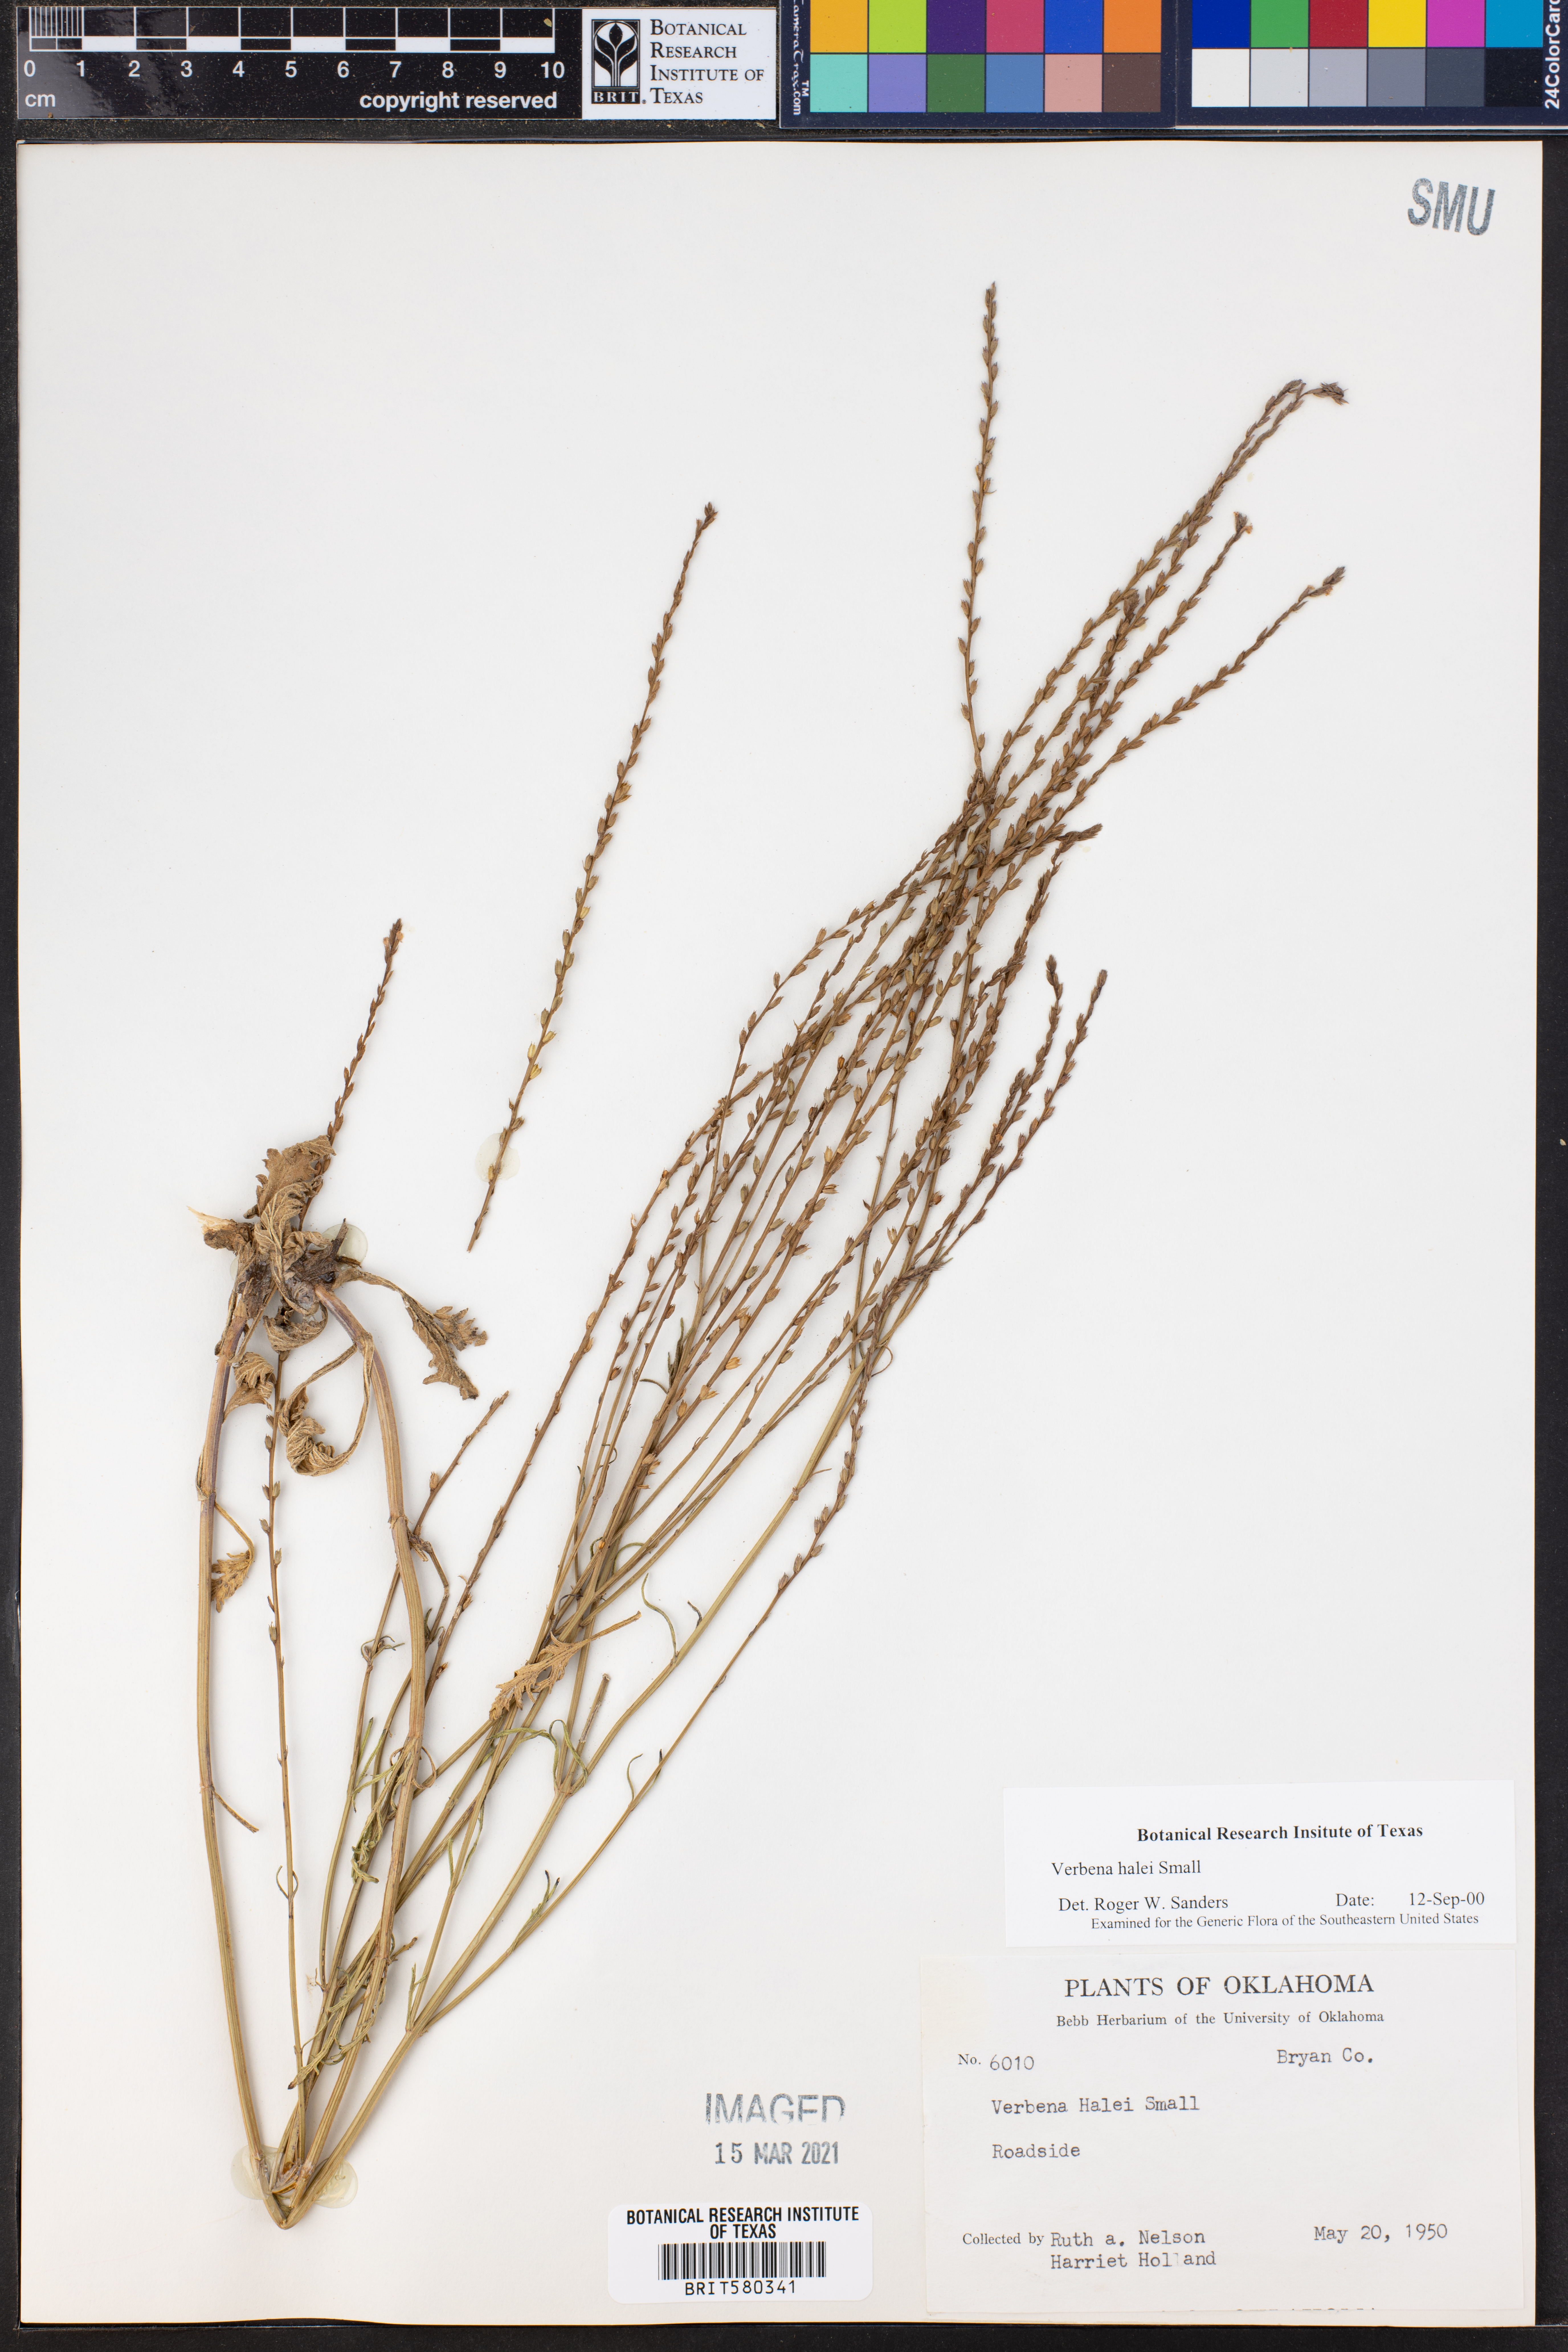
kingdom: Plantae
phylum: Tracheophyta
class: Magnoliopsida
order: Lamiales
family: Verbenaceae
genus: Verbena
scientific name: Verbena halei
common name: Texas vervain
